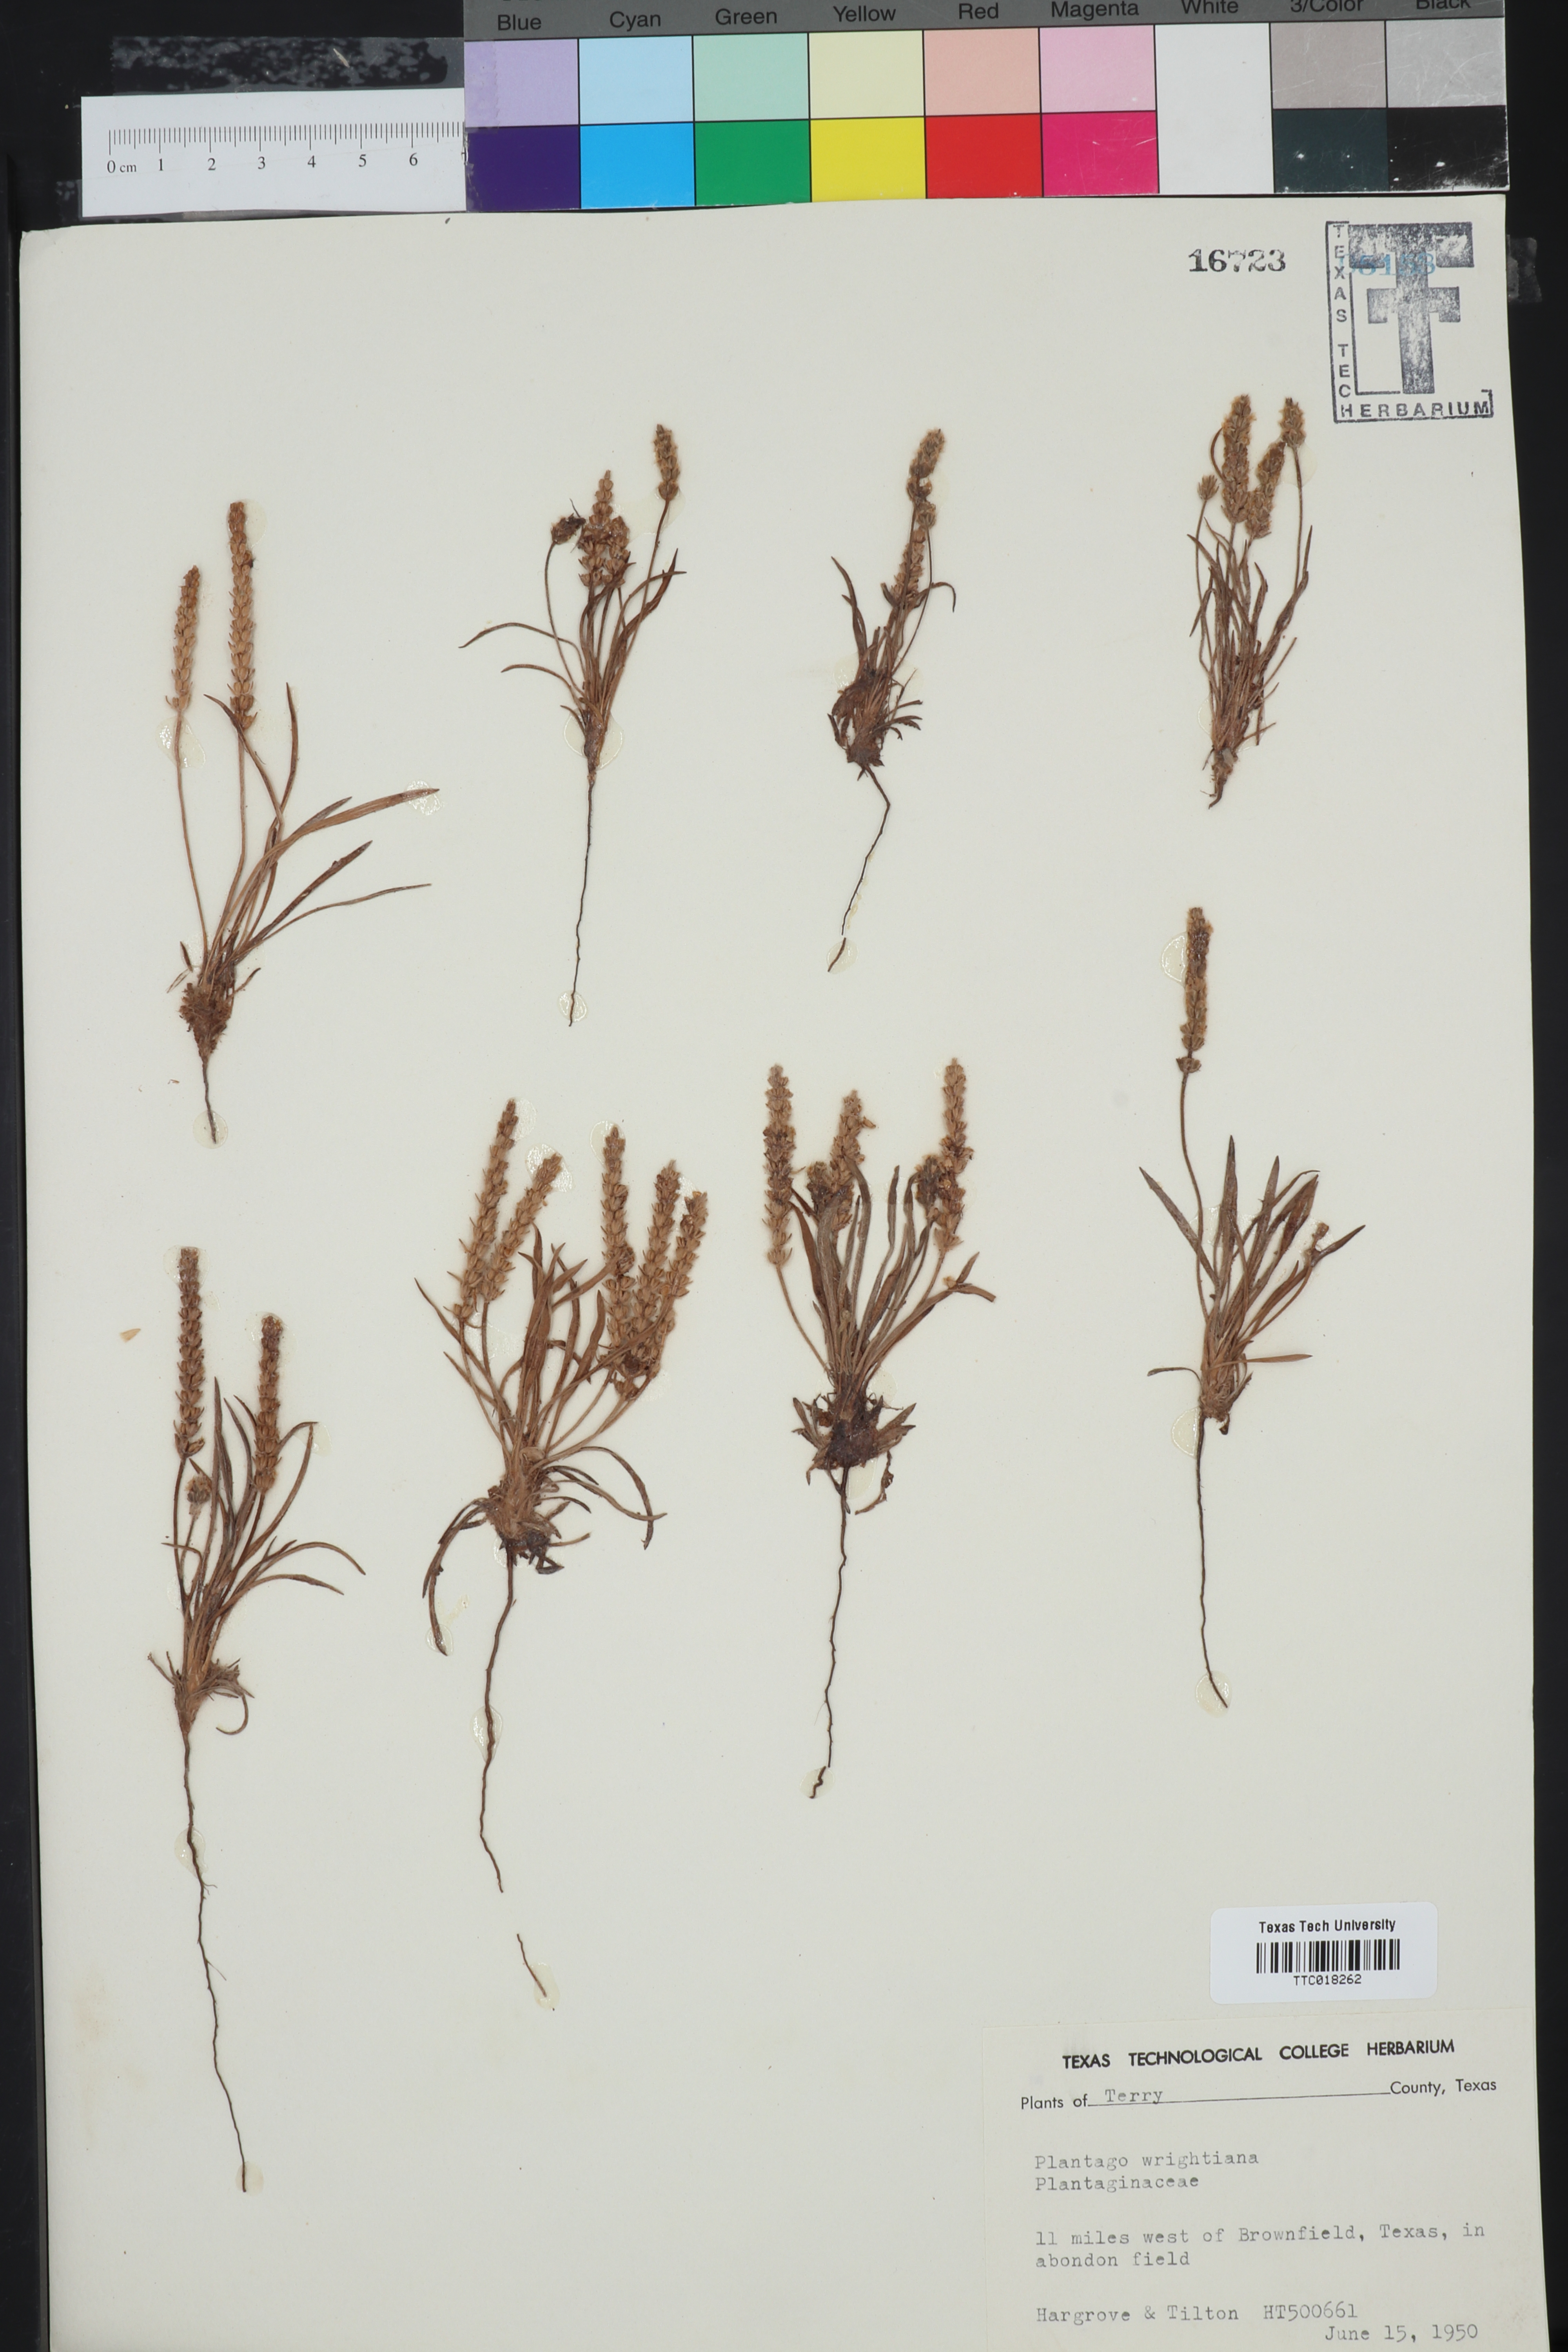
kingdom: Plantae
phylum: Tracheophyta
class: Magnoliopsida
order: Lamiales
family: Plantaginaceae
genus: Plantago
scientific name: Plantago wrightiana
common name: Wright's plantain
